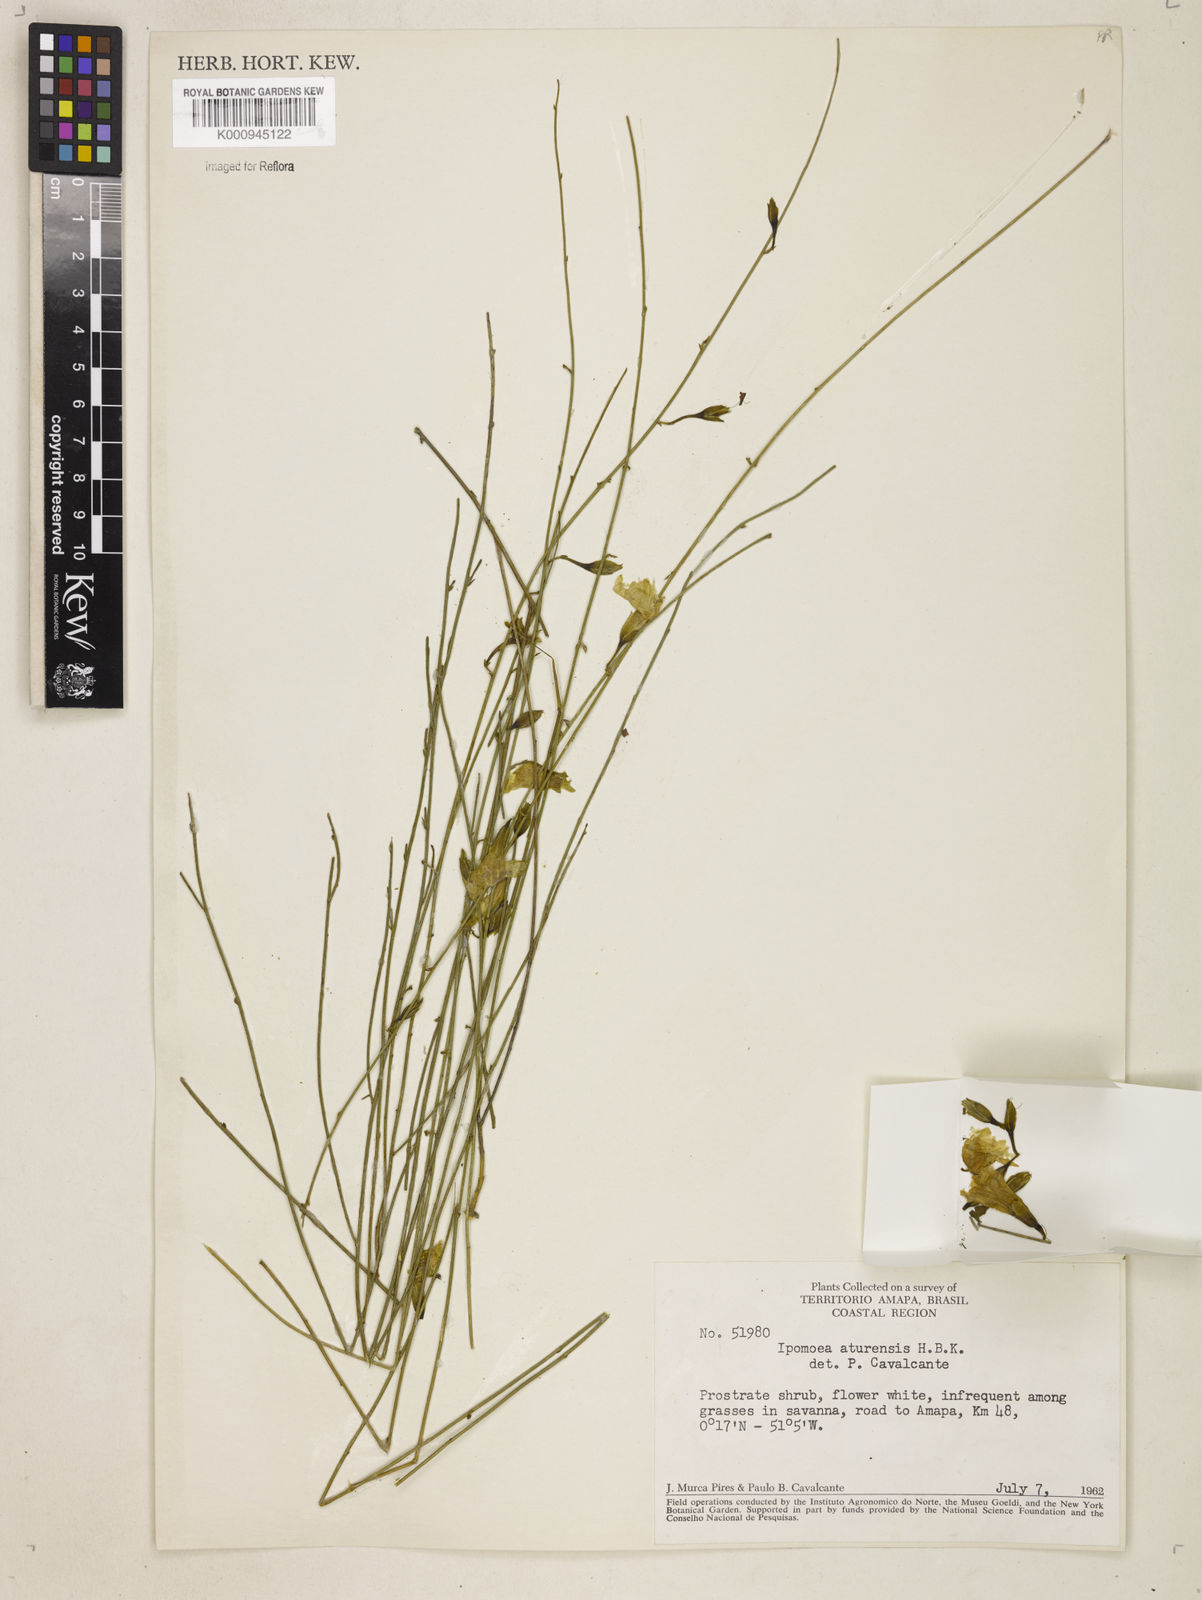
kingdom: Plantae
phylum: Tracheophyta
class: Magnoliopsida
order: Solanales
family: Convolvulaceae
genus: Distimake
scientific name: Distimake aturensis
